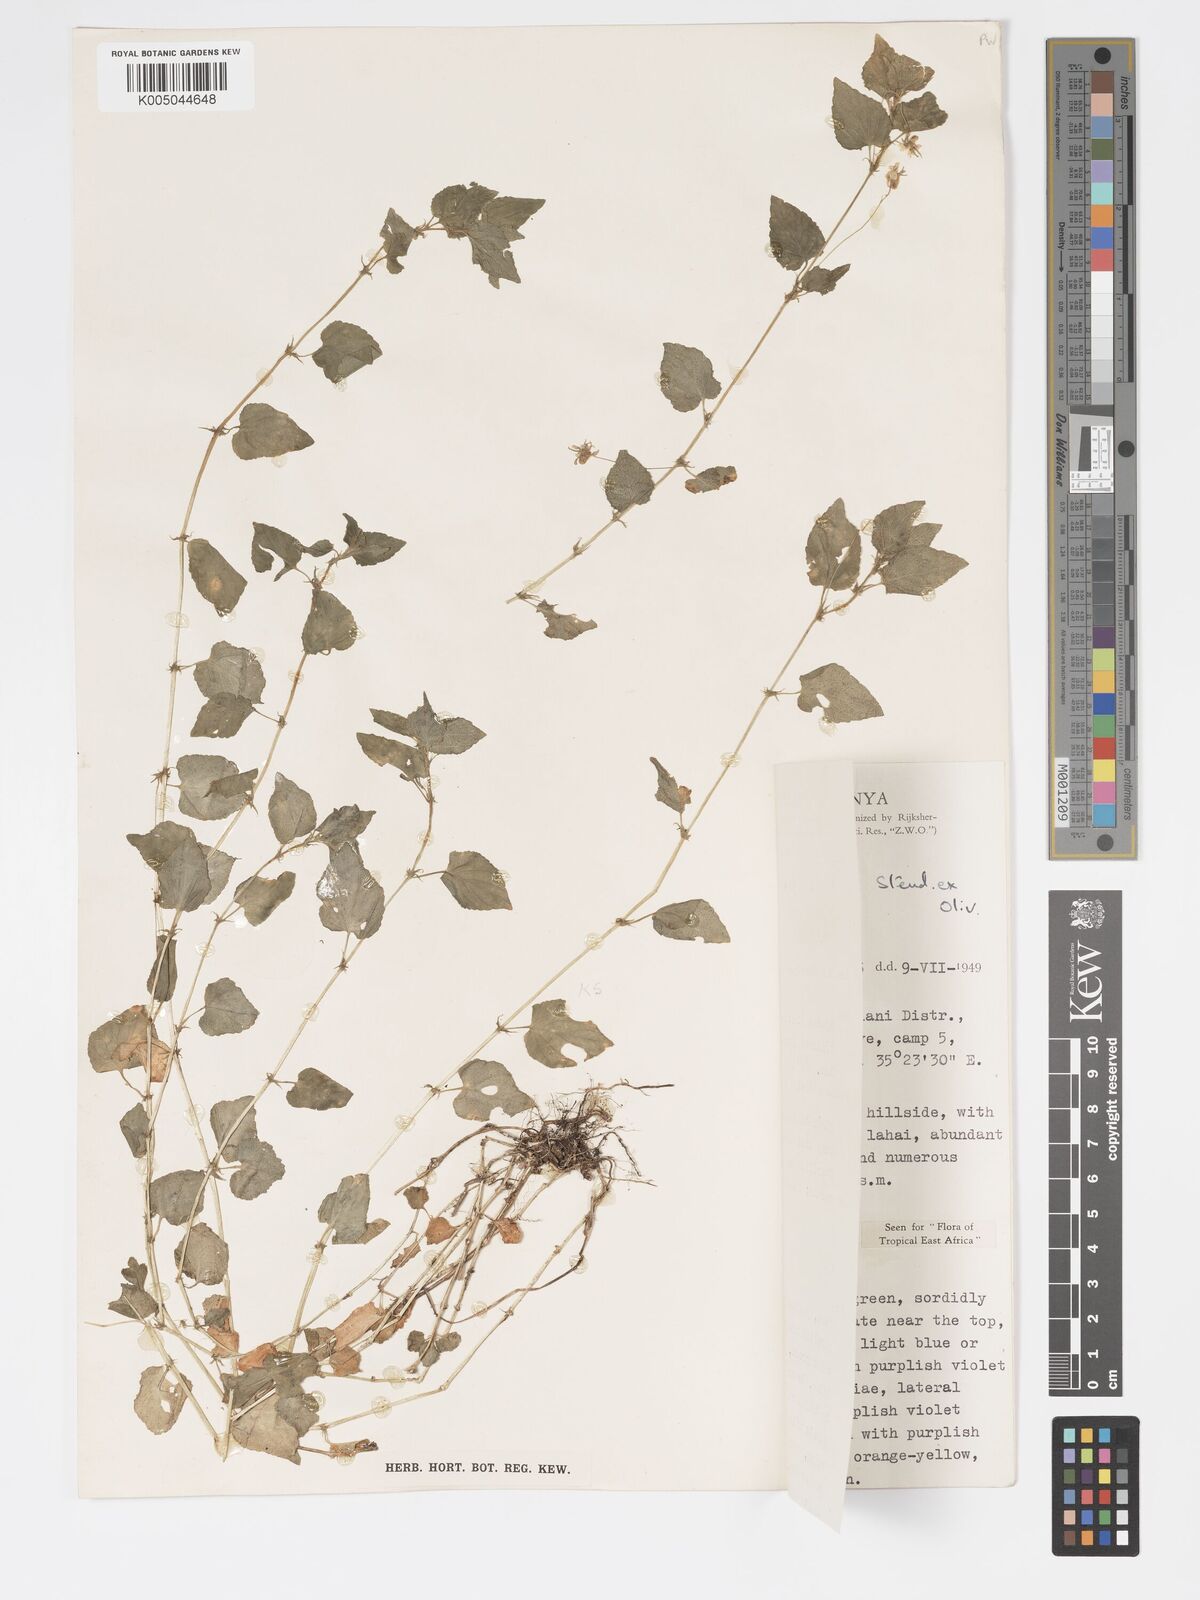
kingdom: Plantae
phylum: Tracheophyta
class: Magnoliopsida
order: Malpighiales
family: Violaceae
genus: Viola
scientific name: Viola abyssinica
